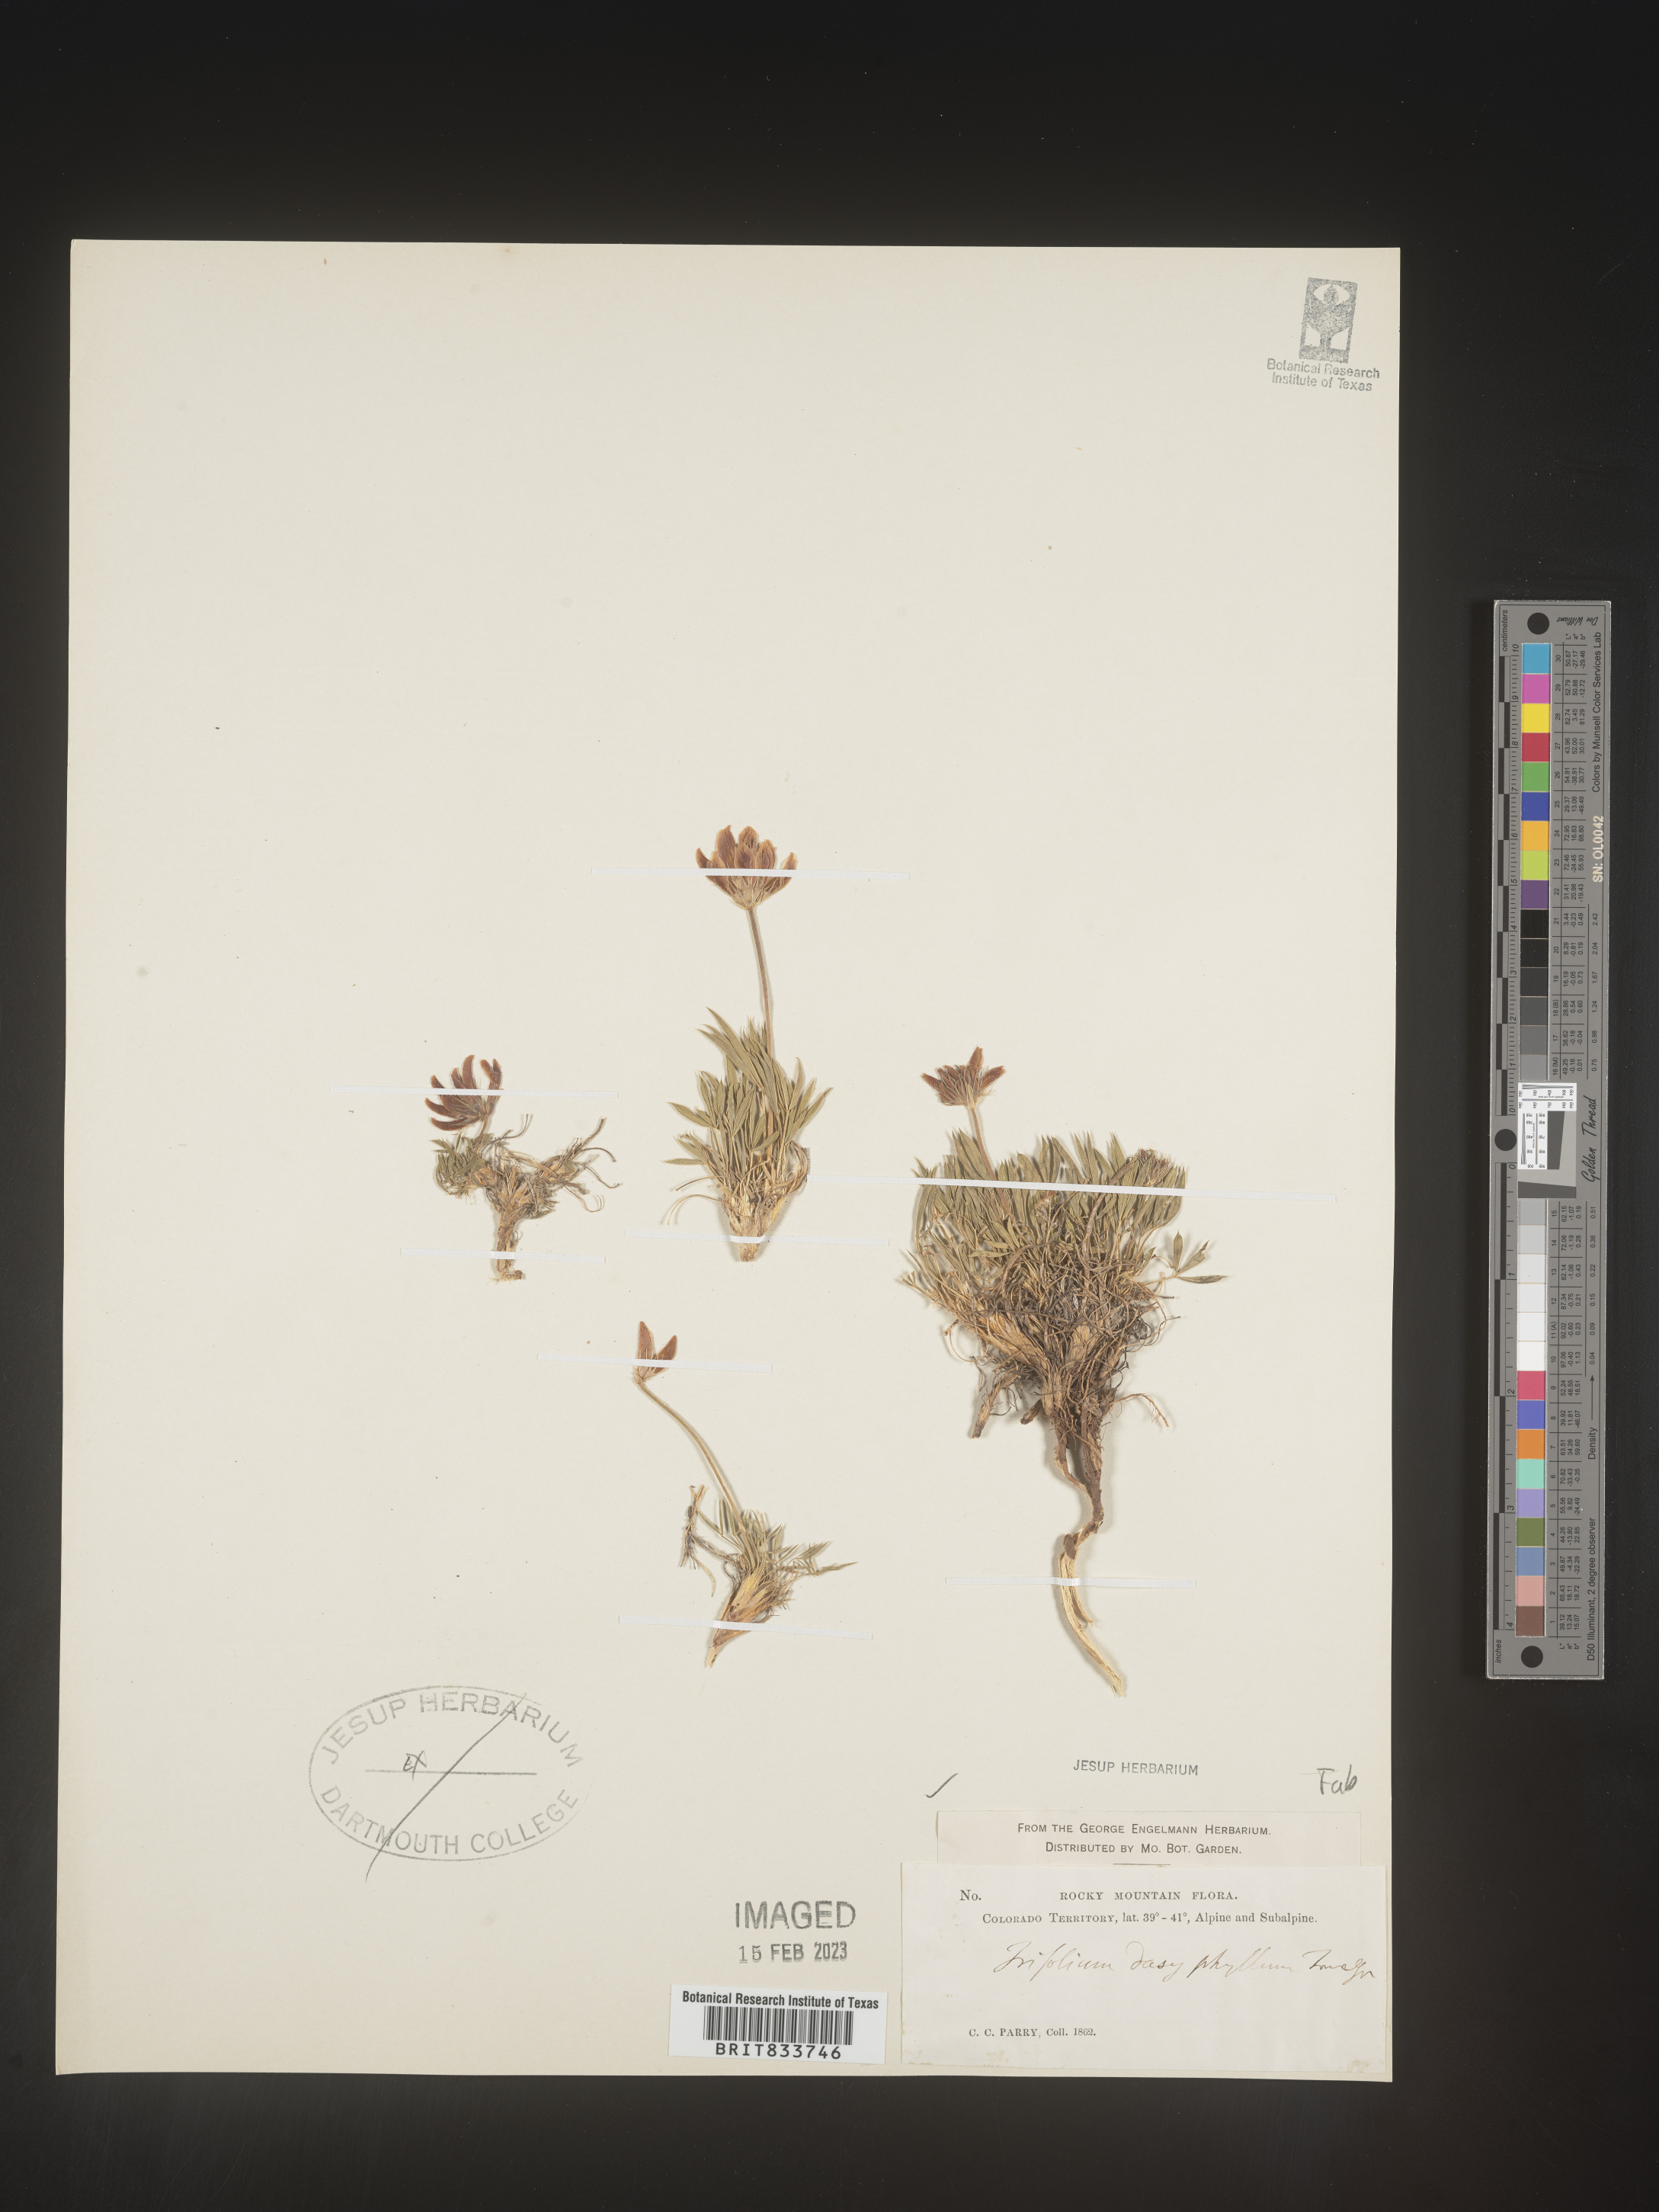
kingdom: Plantae
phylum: Tracheophyta
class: Magnoliopsida
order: Fabales
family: Fabaceae
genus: Trifolium
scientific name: Trifolium
